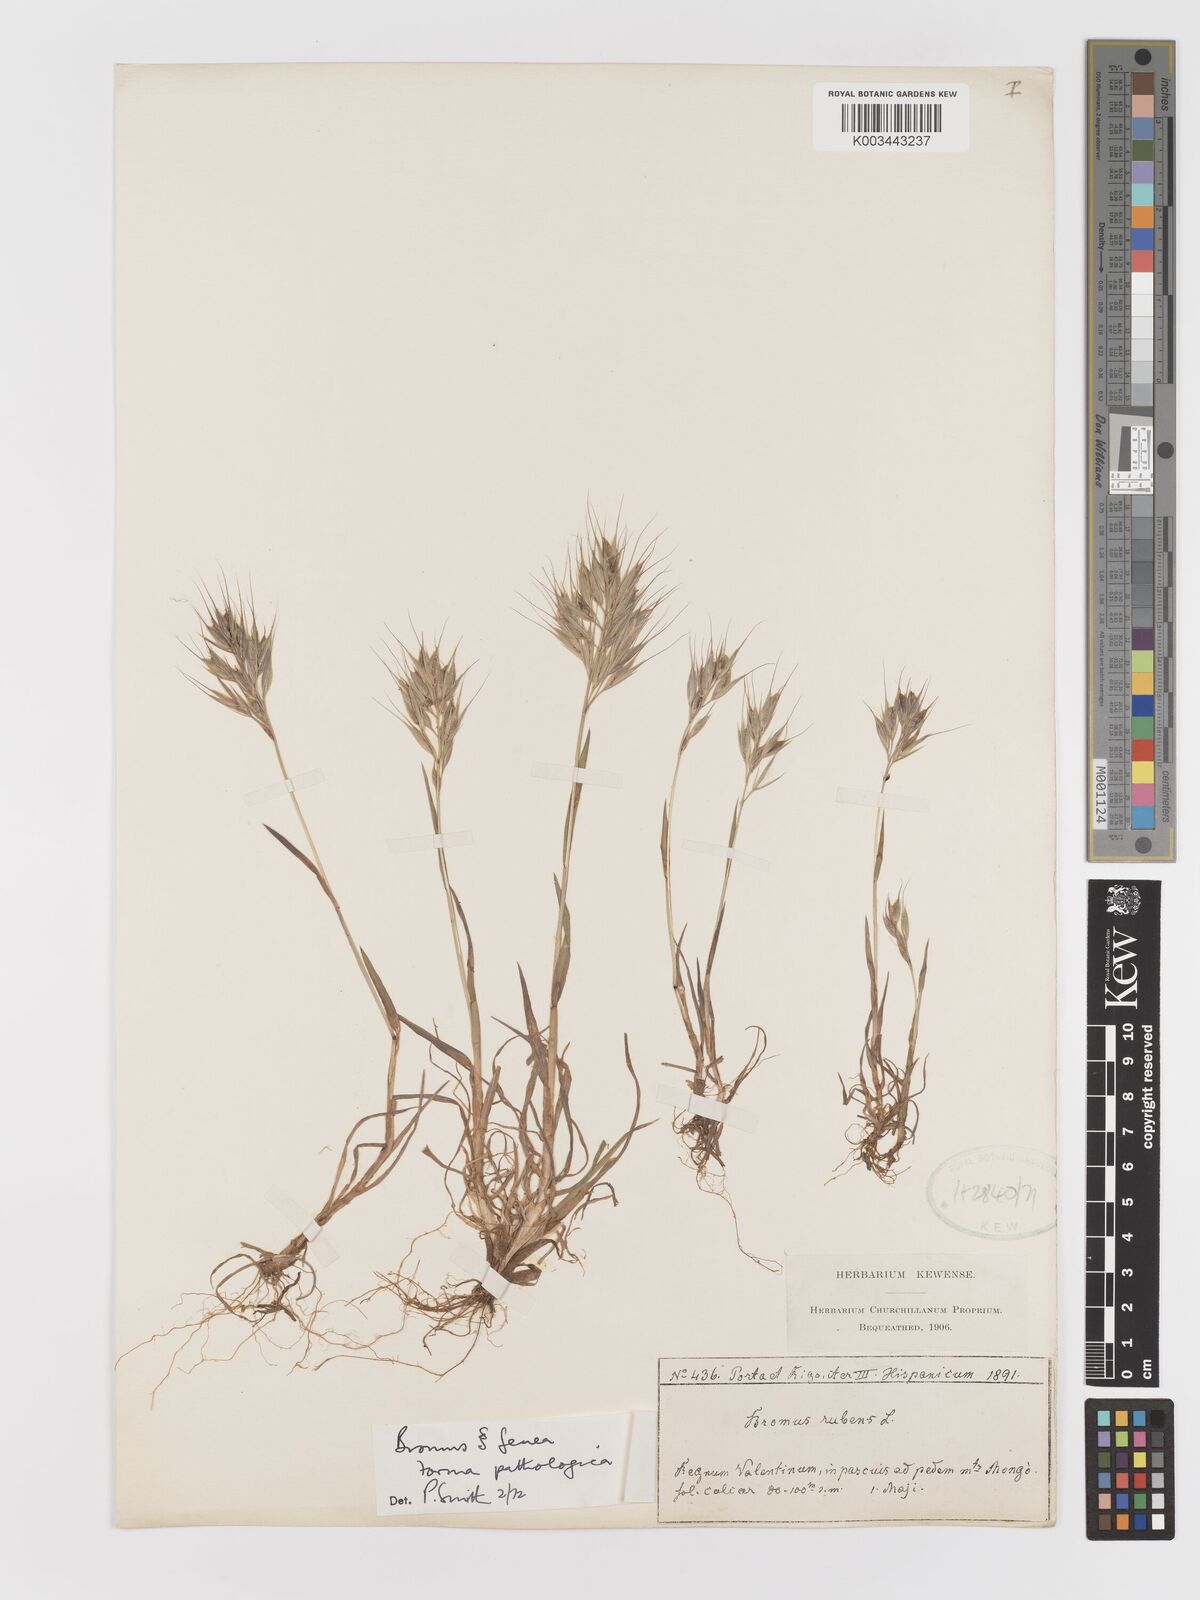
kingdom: Plantae
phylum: Tracheophyta
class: Liliopsida
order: Poales
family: Poaceae
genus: Bromus
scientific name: Bromus
